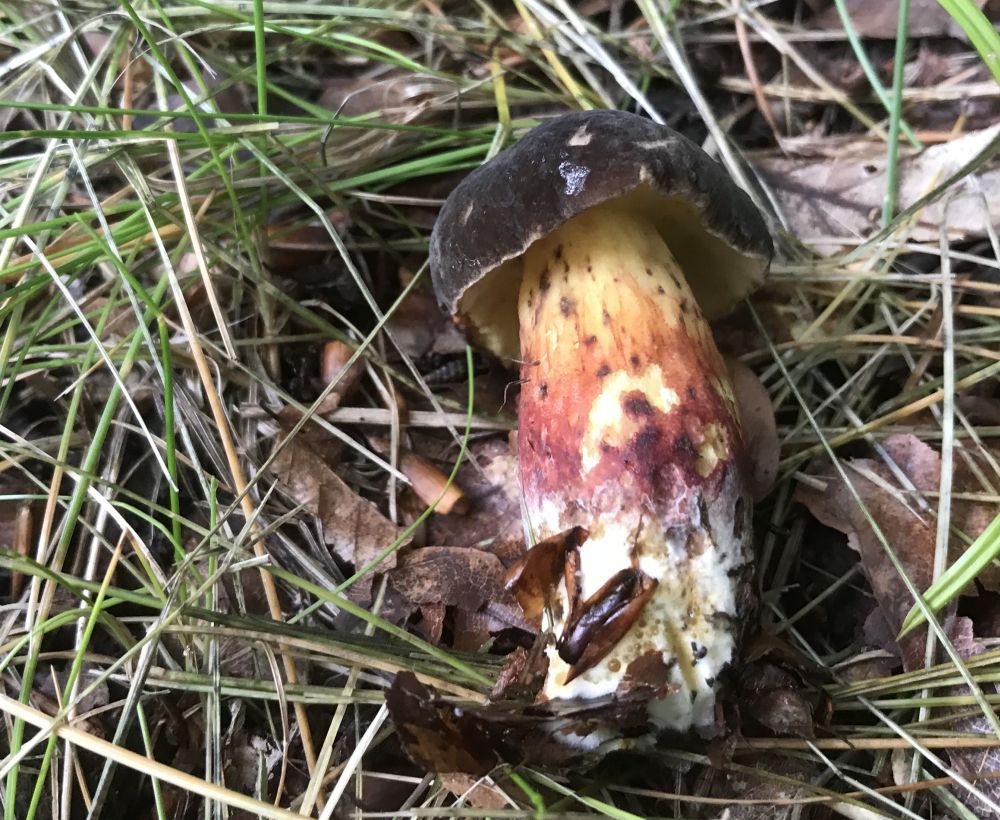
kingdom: Fungi
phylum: Basidiomycota
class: Agaricomycetes
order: Boletales
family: Boletaceae
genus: Xerocomellus
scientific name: Xerocomellus pruinatus
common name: dugget rørhat
